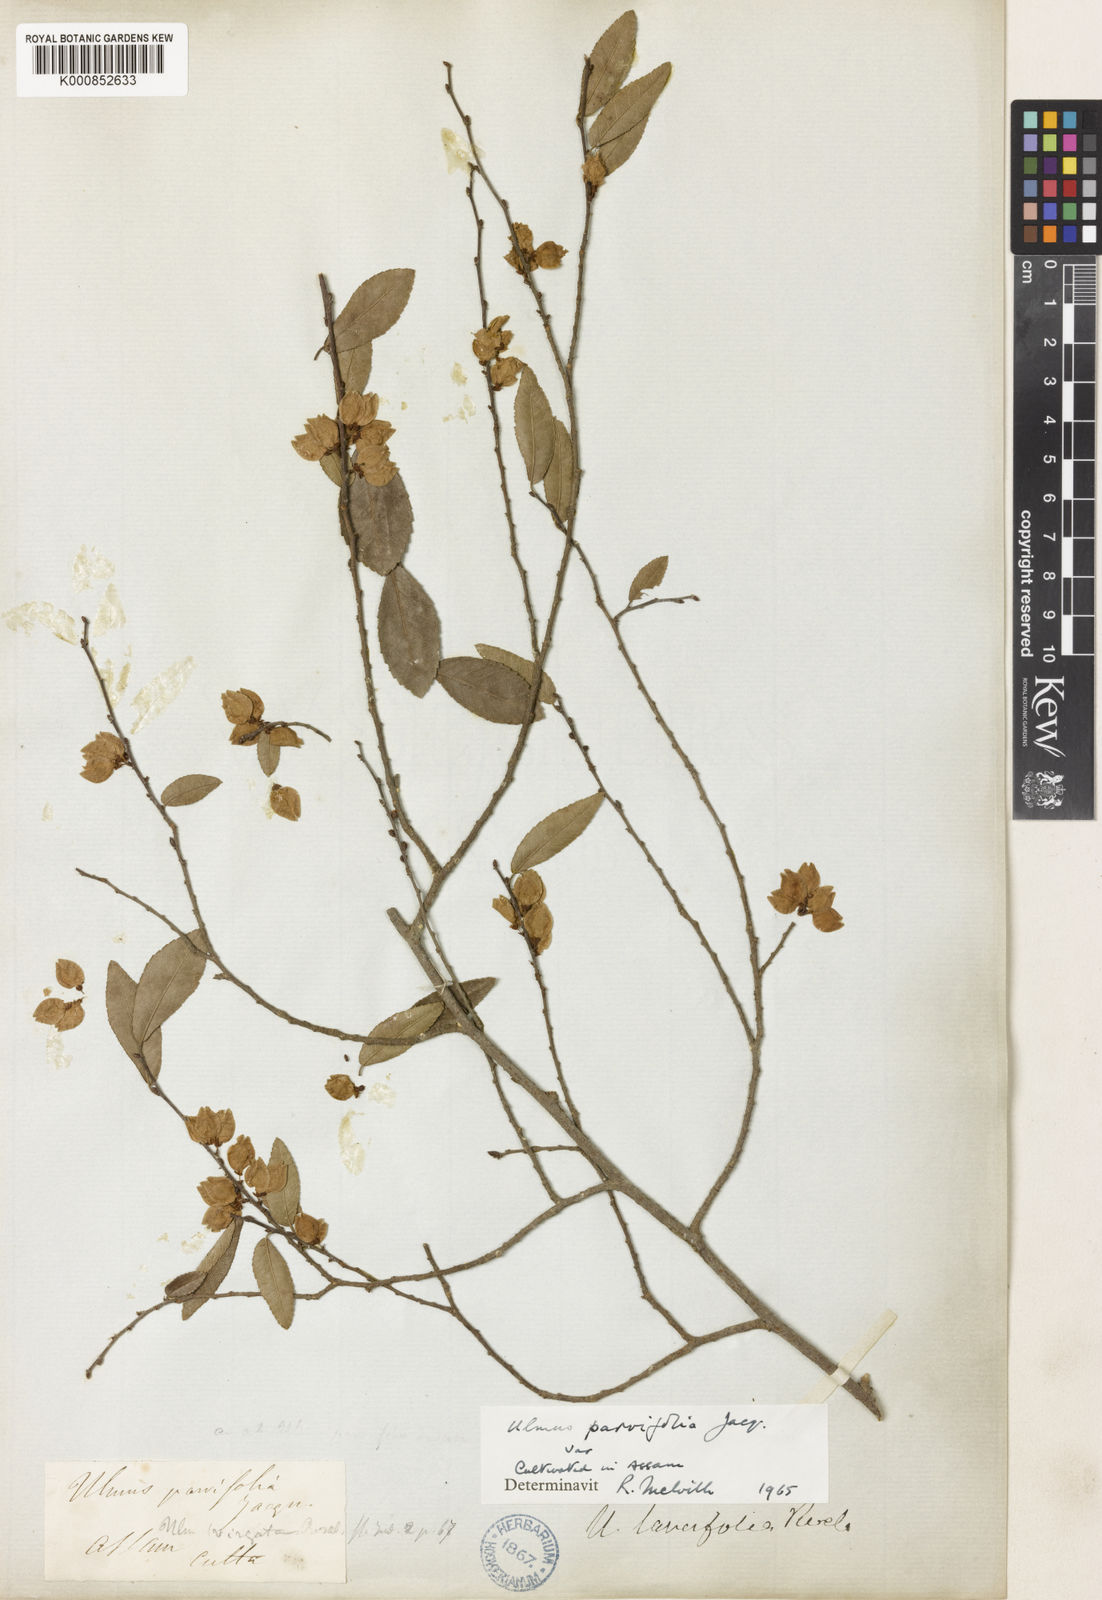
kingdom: Plantae
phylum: Tracheophyta
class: Magnoliopsida
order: Rosales
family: Ulmaceae
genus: Ulmus
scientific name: Ulmus parvifolia
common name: Chinese elm
